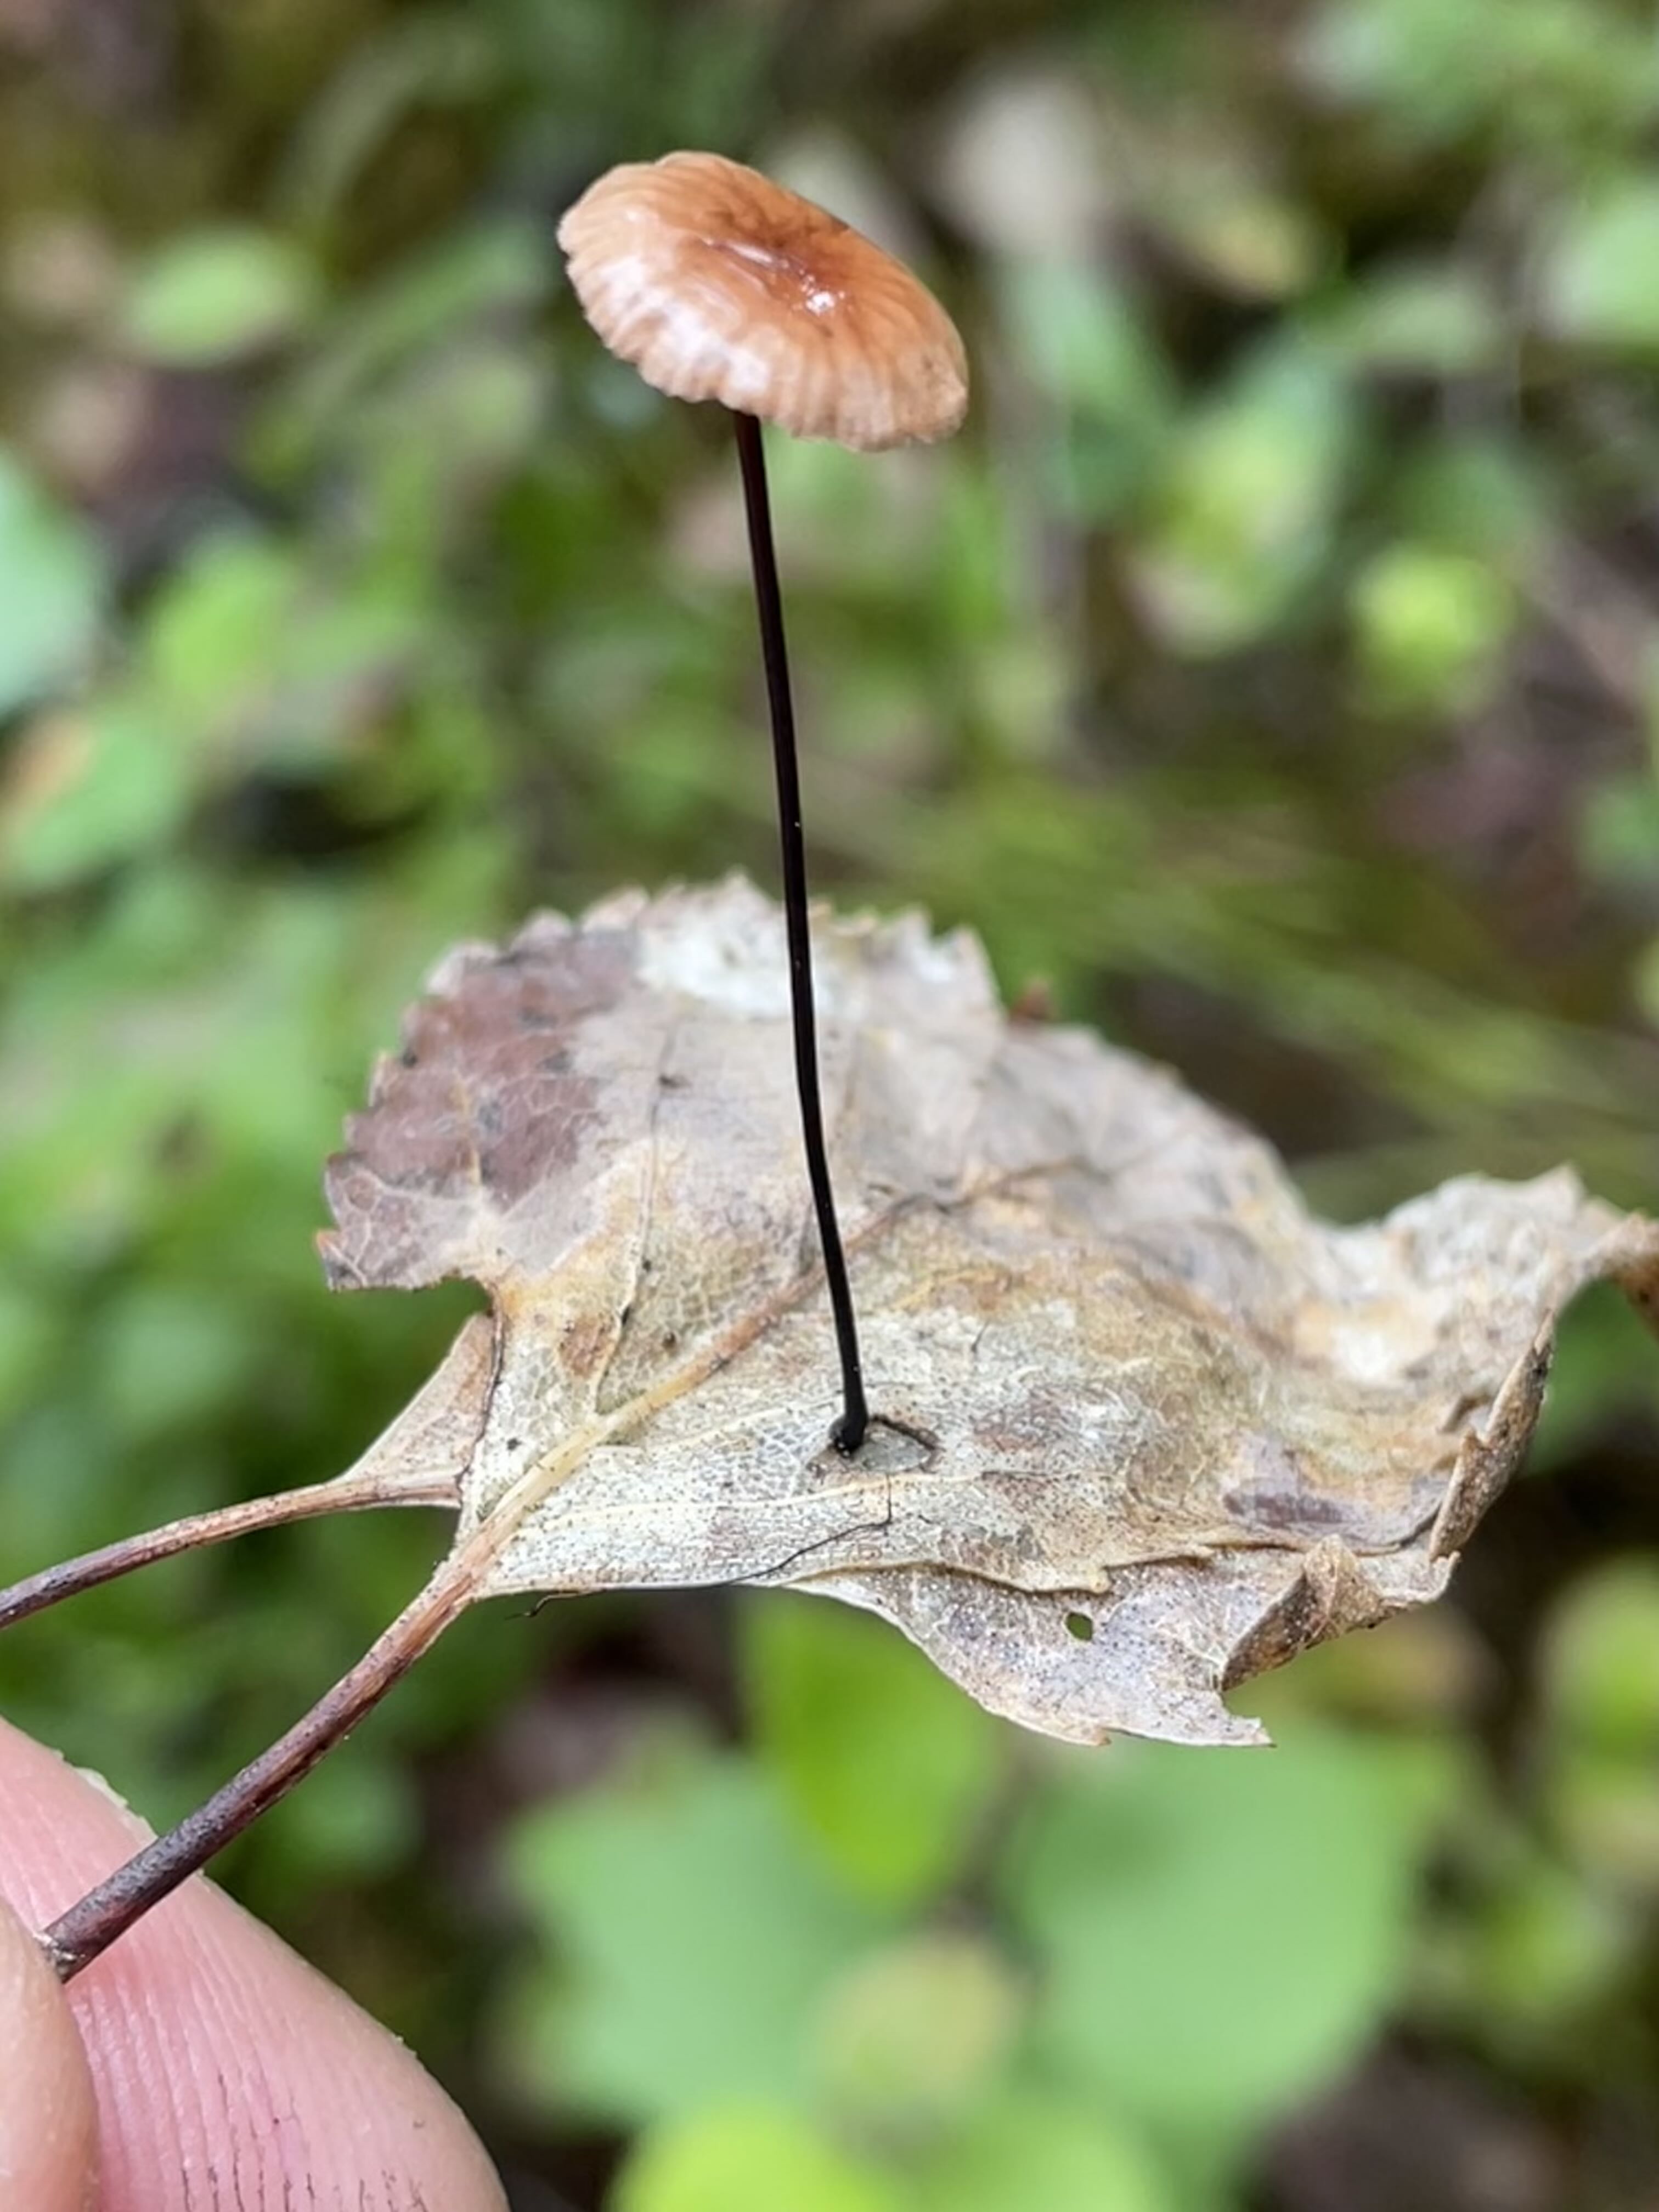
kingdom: Fungi
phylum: Basidiomycota
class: Agaricomycetes
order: Agaricales
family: Omphalotaceae
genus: Gymnopus
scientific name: Gymnopus androsaceus
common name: trådstokket fladhat
